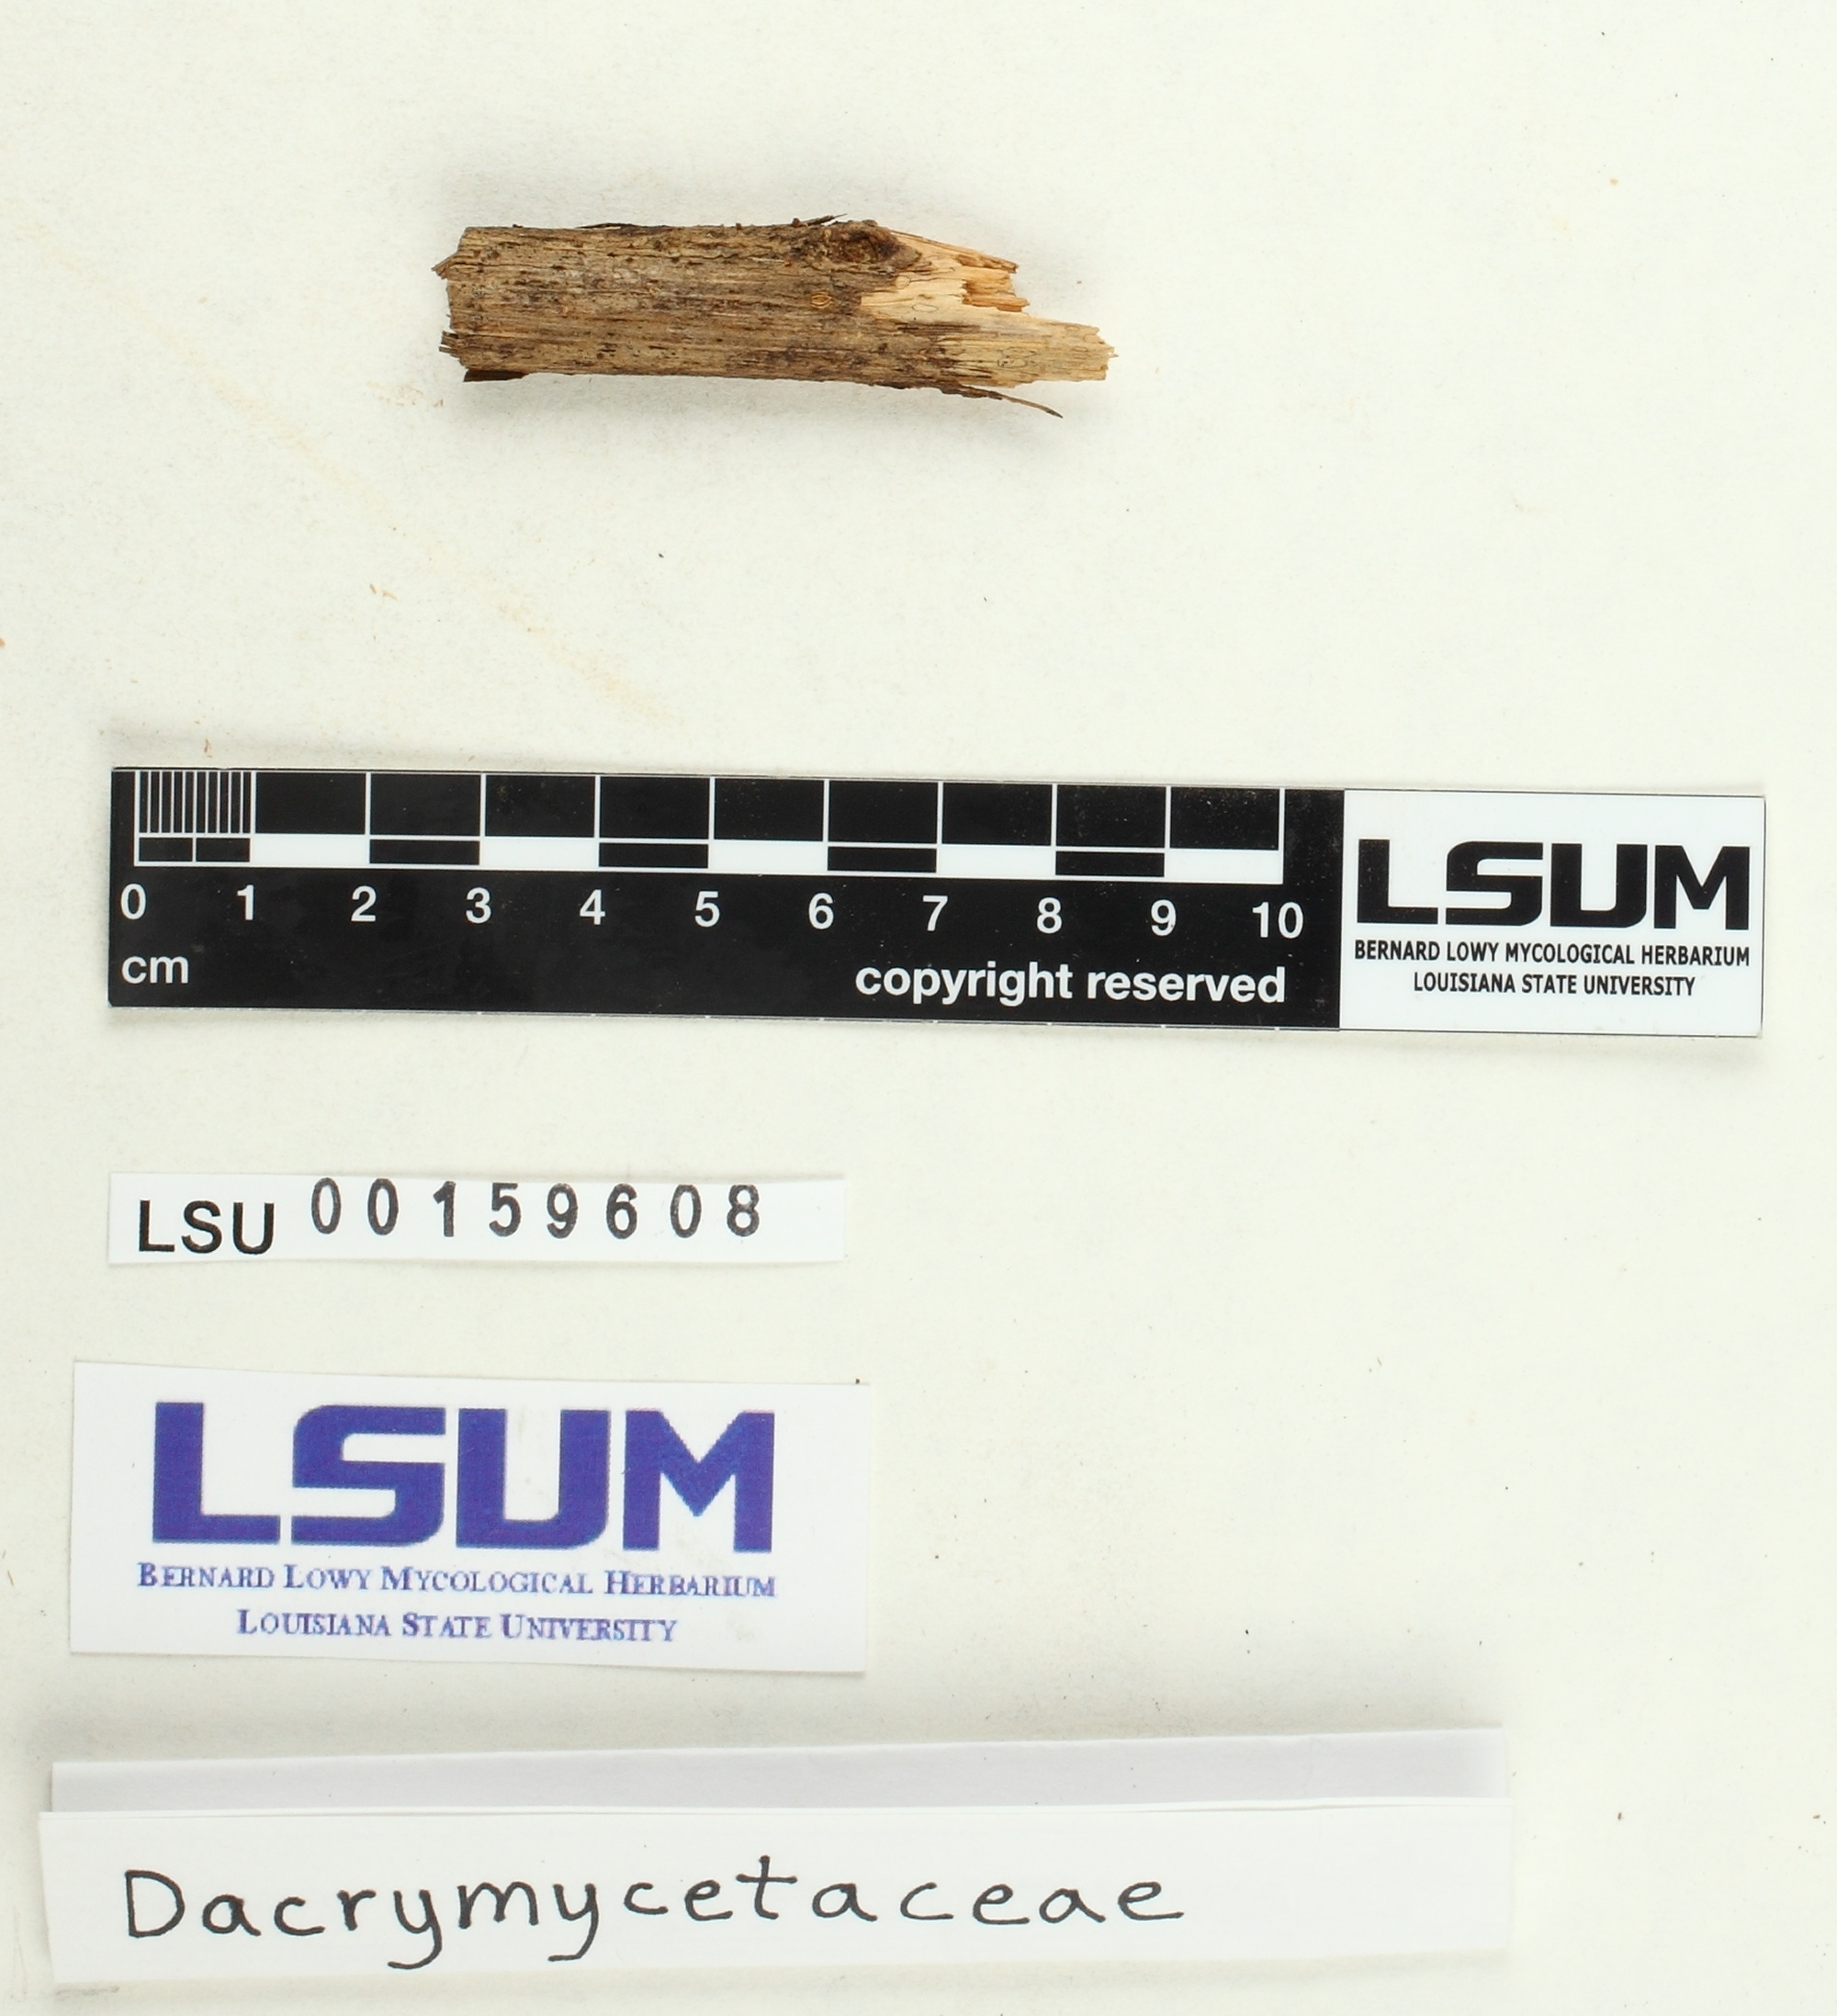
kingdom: Fungi
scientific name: Fungi
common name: Fungi
